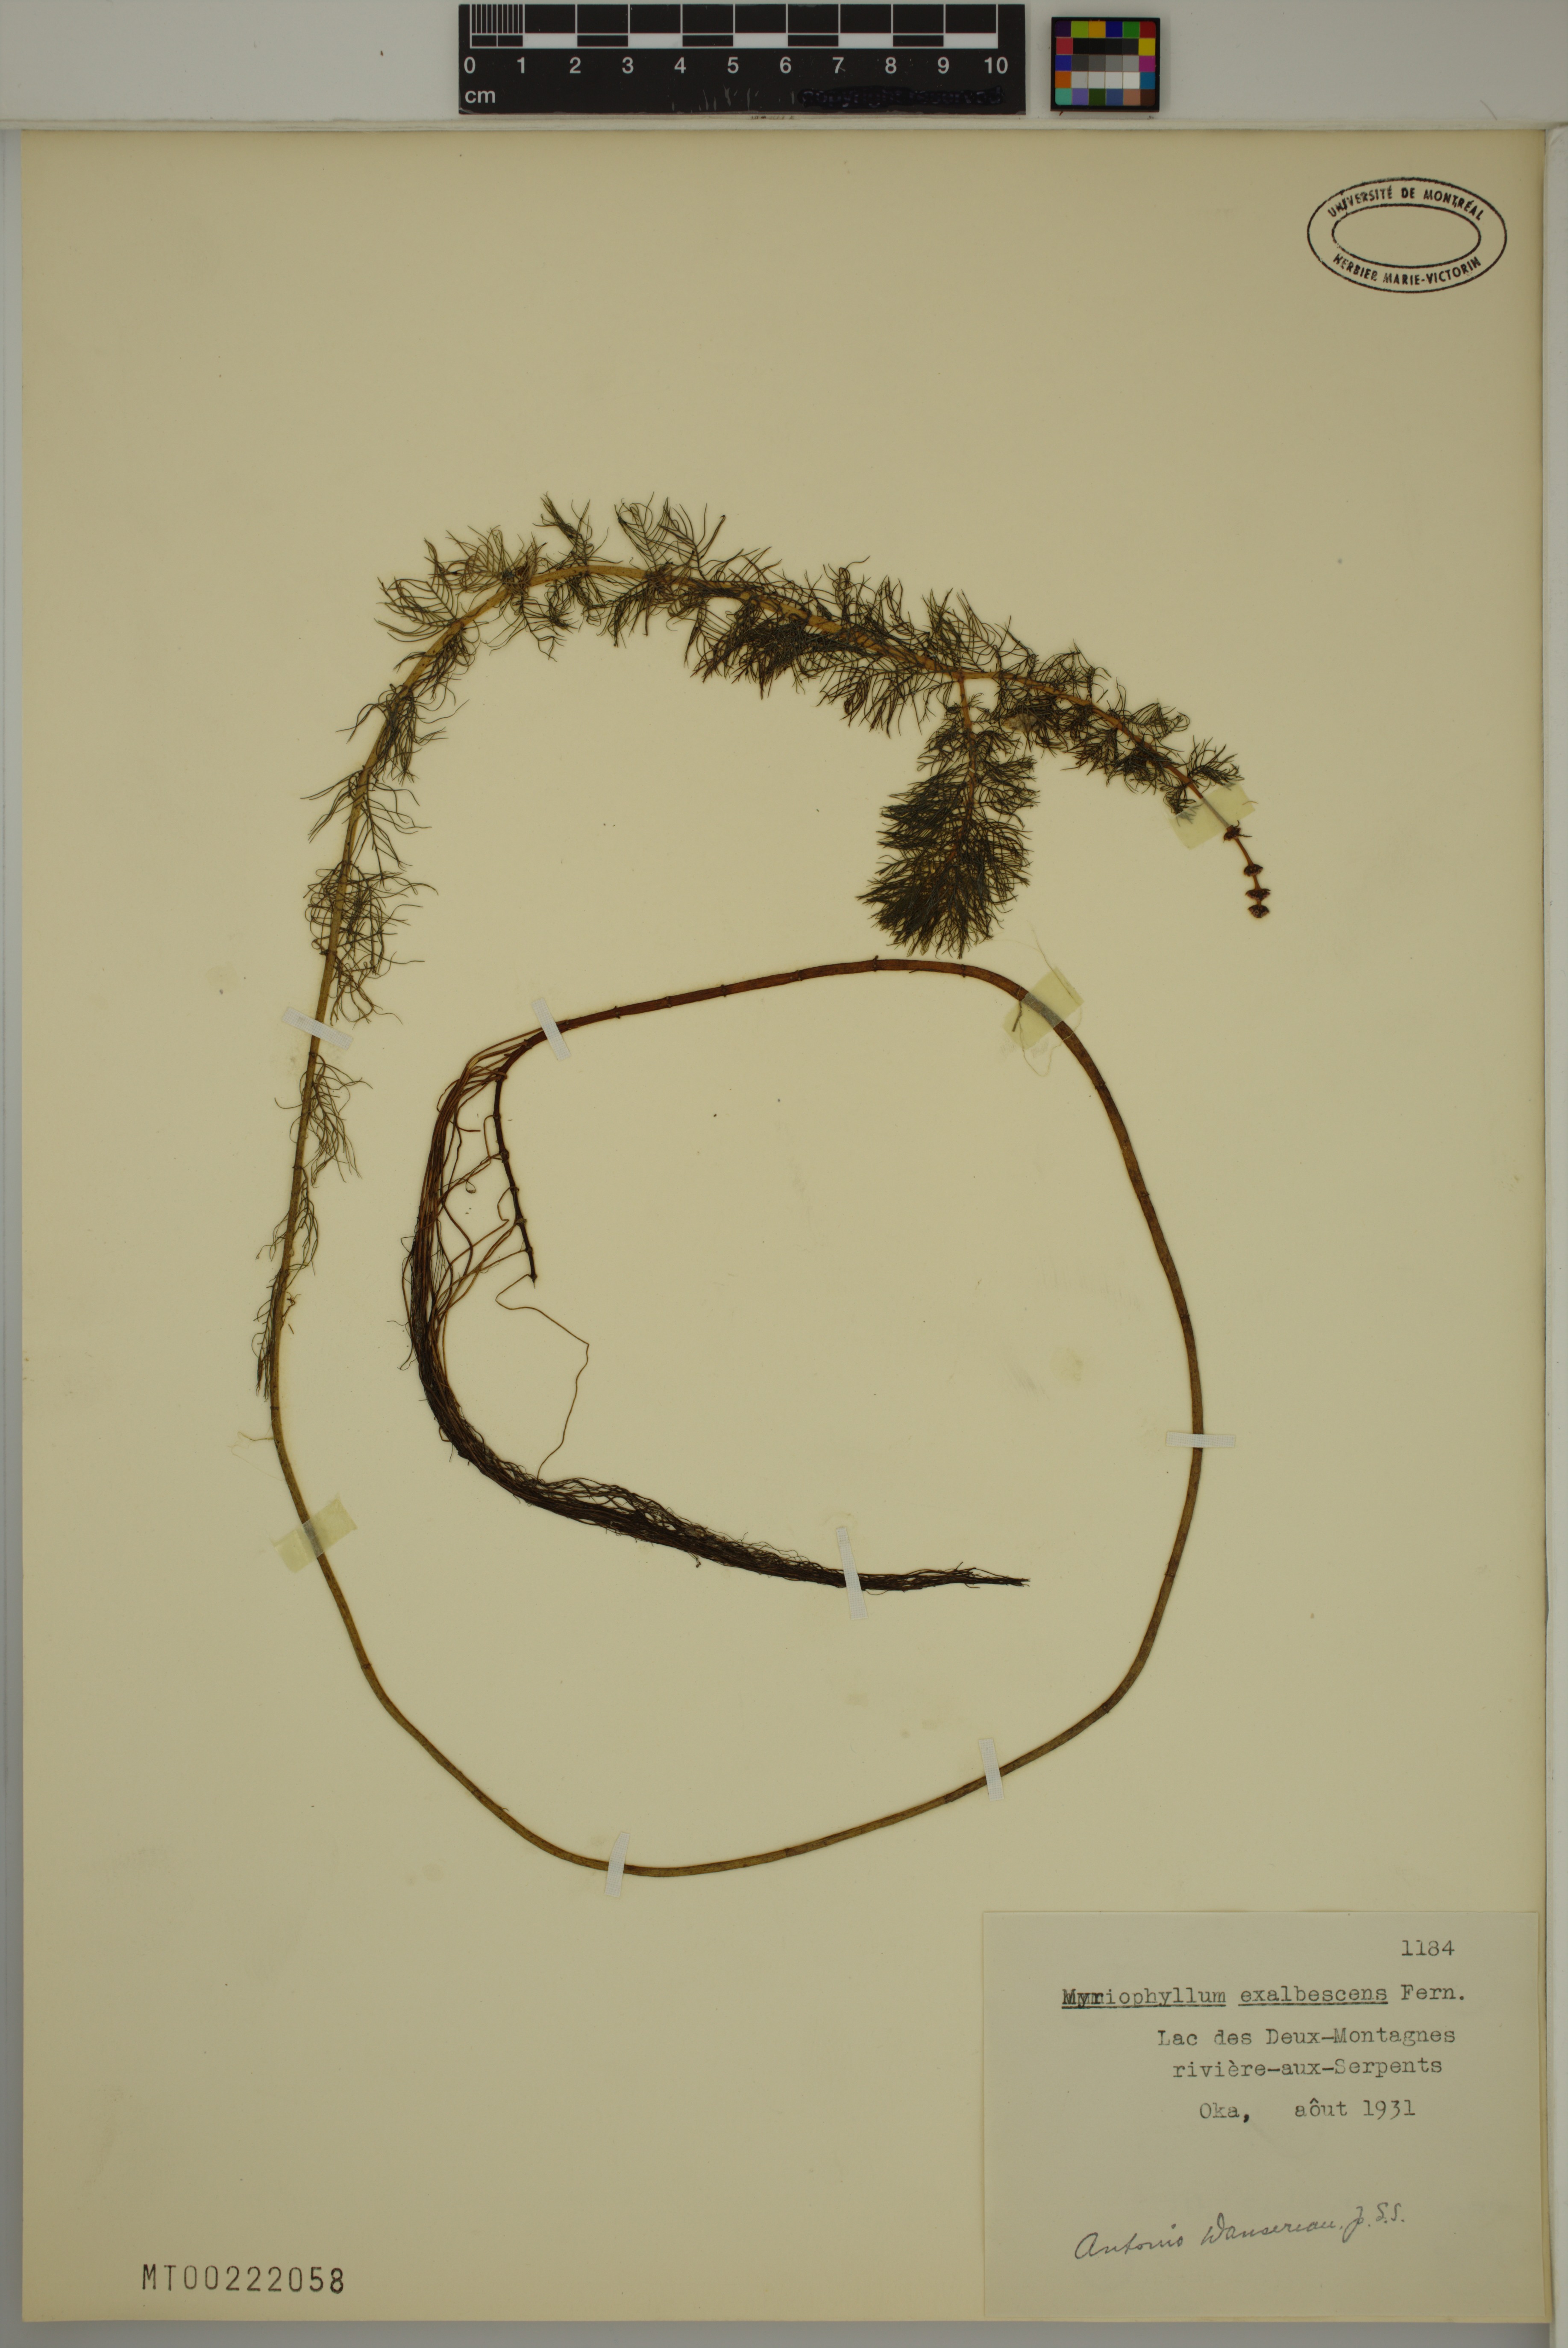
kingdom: Plantae
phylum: Tracheophyta
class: Magnoliopsida
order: Saxifragales
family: Haloragaceae
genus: Myriophyllum
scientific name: Myriophyllum sibiricum
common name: Siberian water-milfoil
